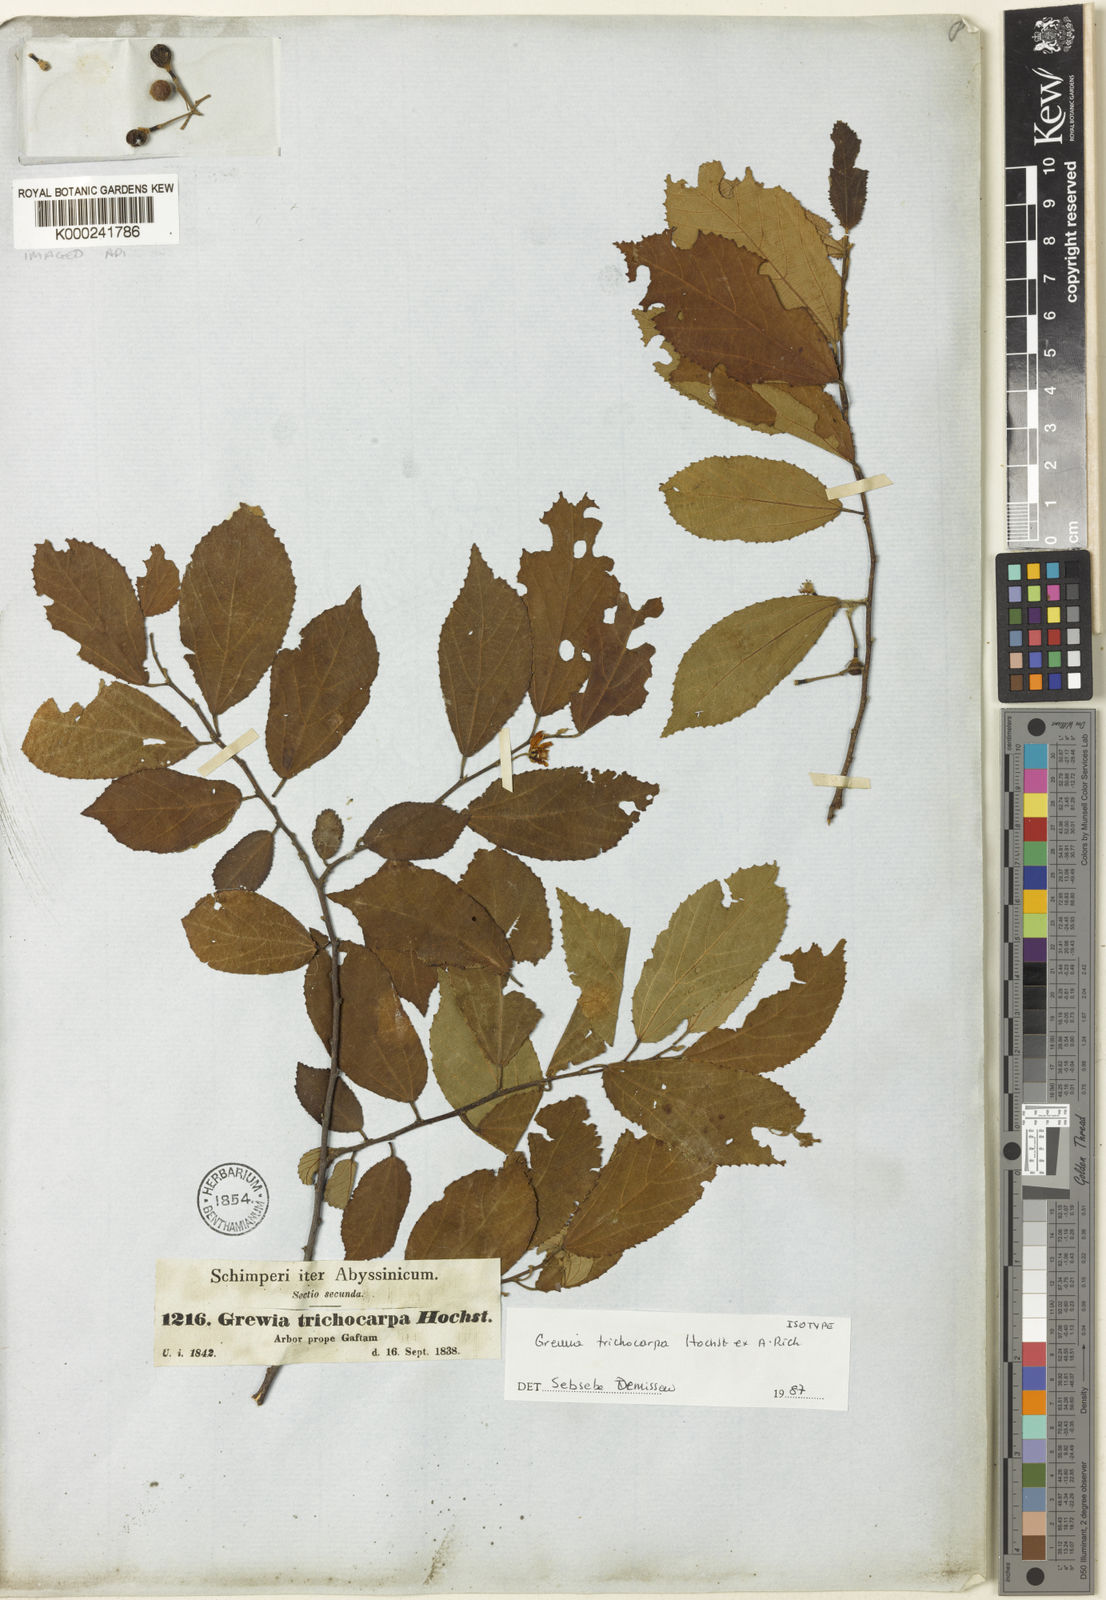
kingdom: Plantae
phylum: Tracheophyta
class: Magnoliopsida
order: Malvales
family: Malvaceae
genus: Grewia
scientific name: Grewia trichocarpa
